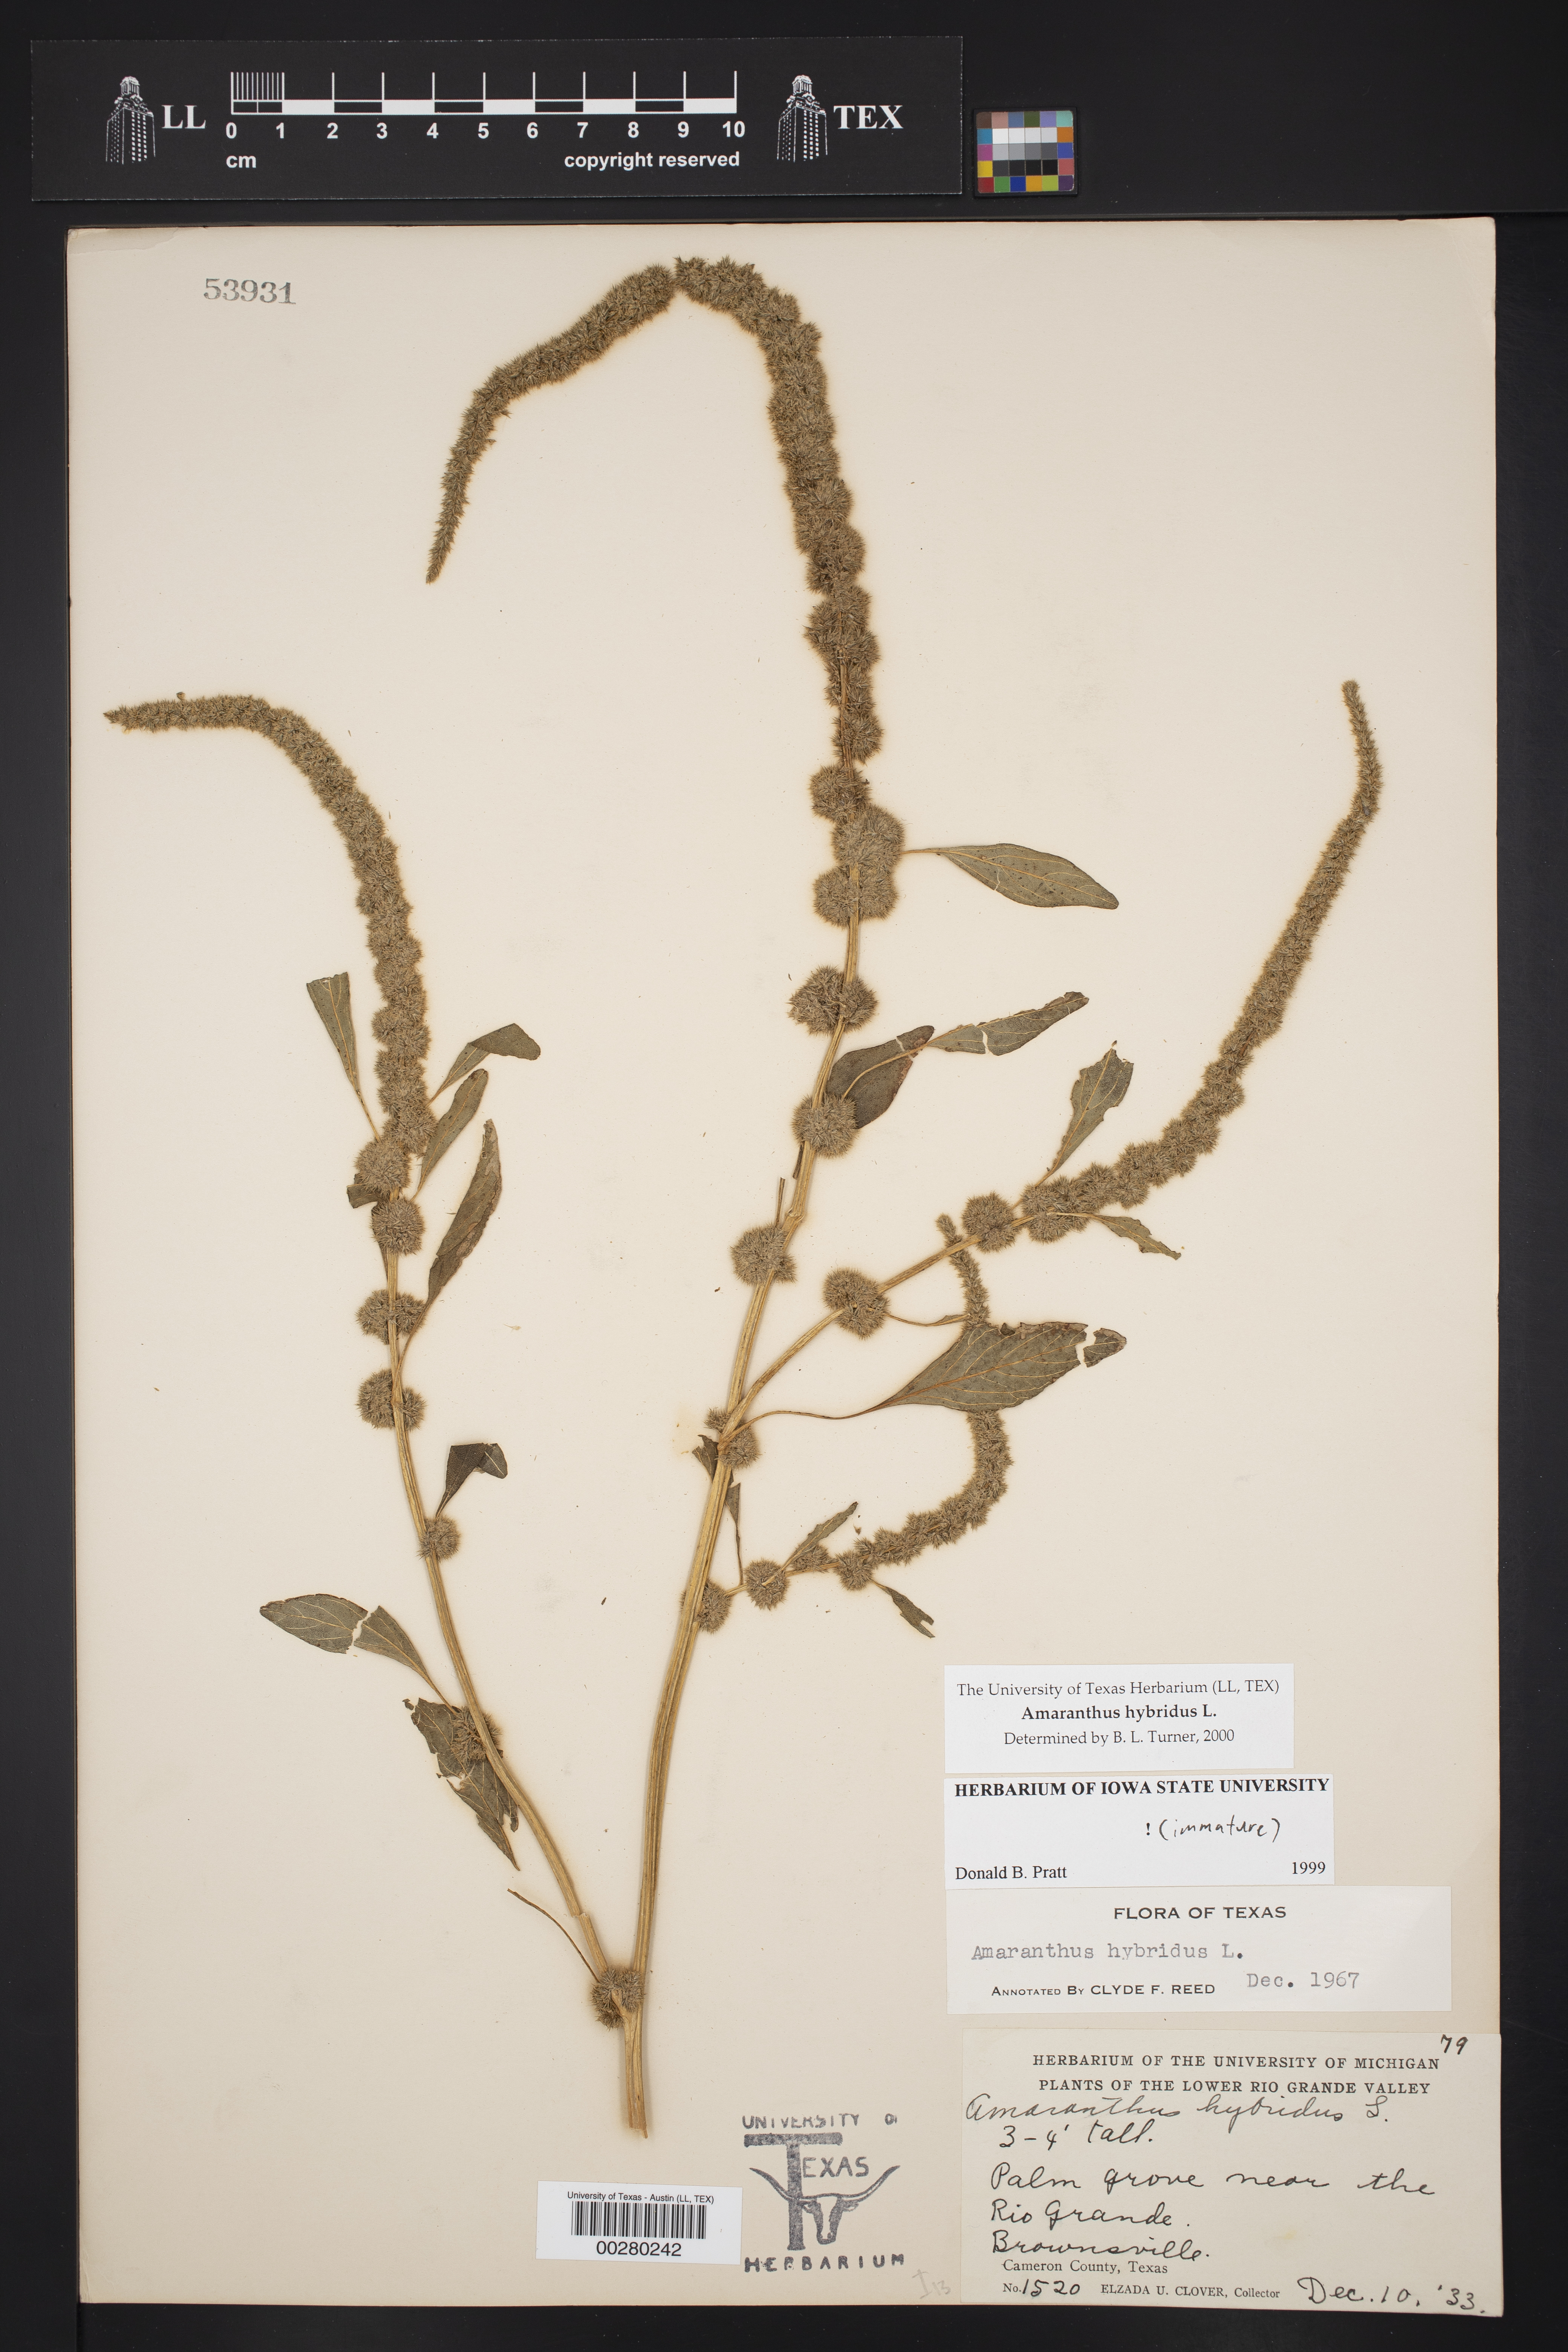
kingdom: Plantae
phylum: Tracheophyta
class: Magnoliopsida
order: Caryophyllales
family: Amaranthaceae
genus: Amaranthus
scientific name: Amaranthus hybridus
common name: Green amaranth
